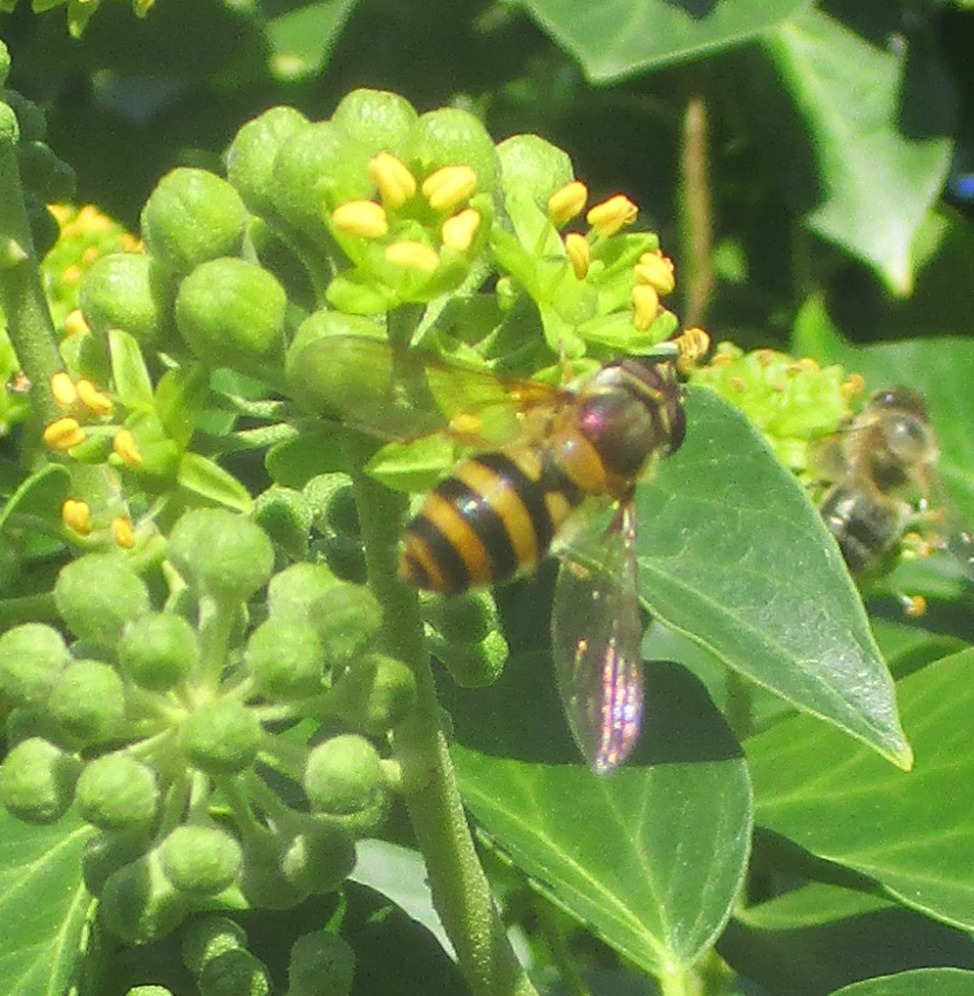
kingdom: Animalia
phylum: Arthropoda
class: Insecta
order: Diptera
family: Syrphidae
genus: Epistrophe
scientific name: Epistrophe grossulariae
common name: Stikkelsbær-glanssvirreflue
